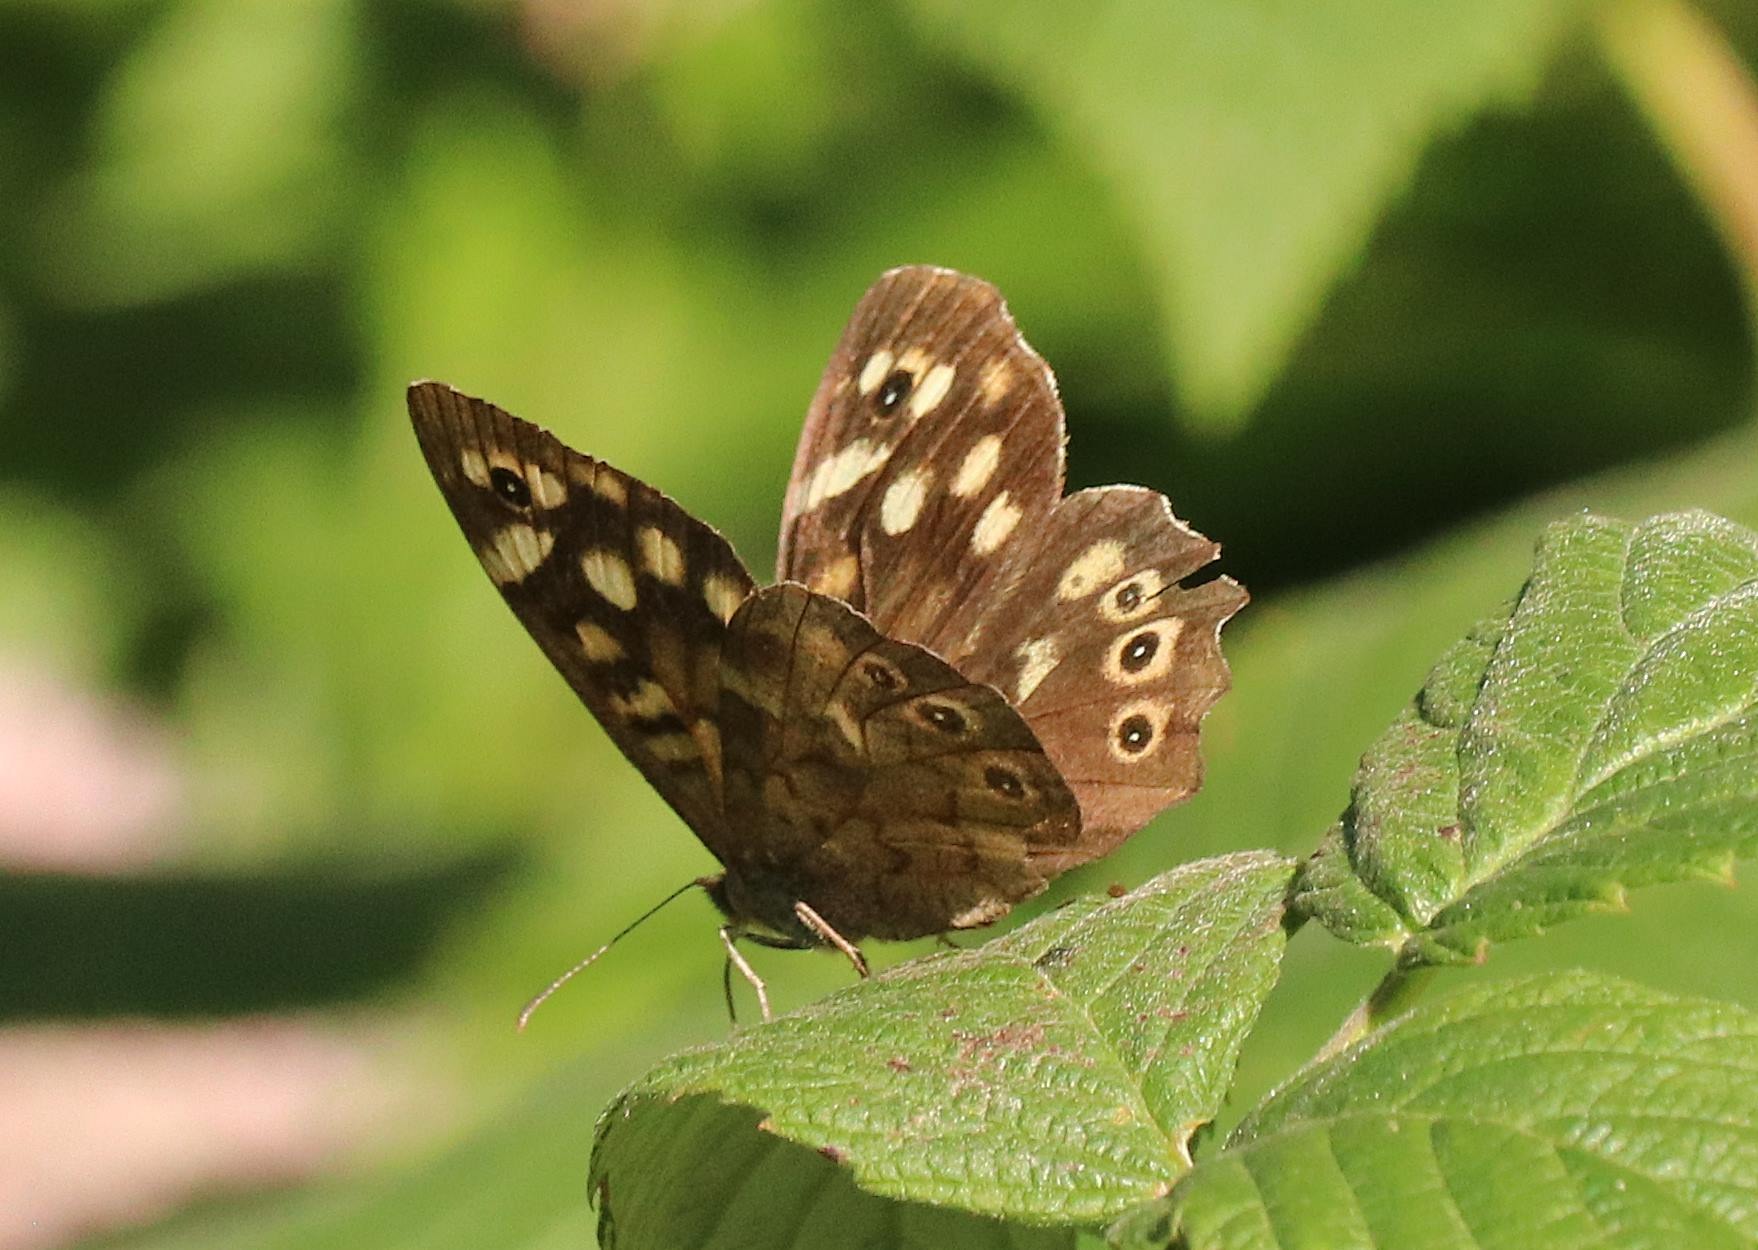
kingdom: Animalia
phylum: Arthropoda
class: Insecta
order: Lepidoptera
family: Nymphalidae
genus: Pararge
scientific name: Pararge aegeria
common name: Skovrandøje
